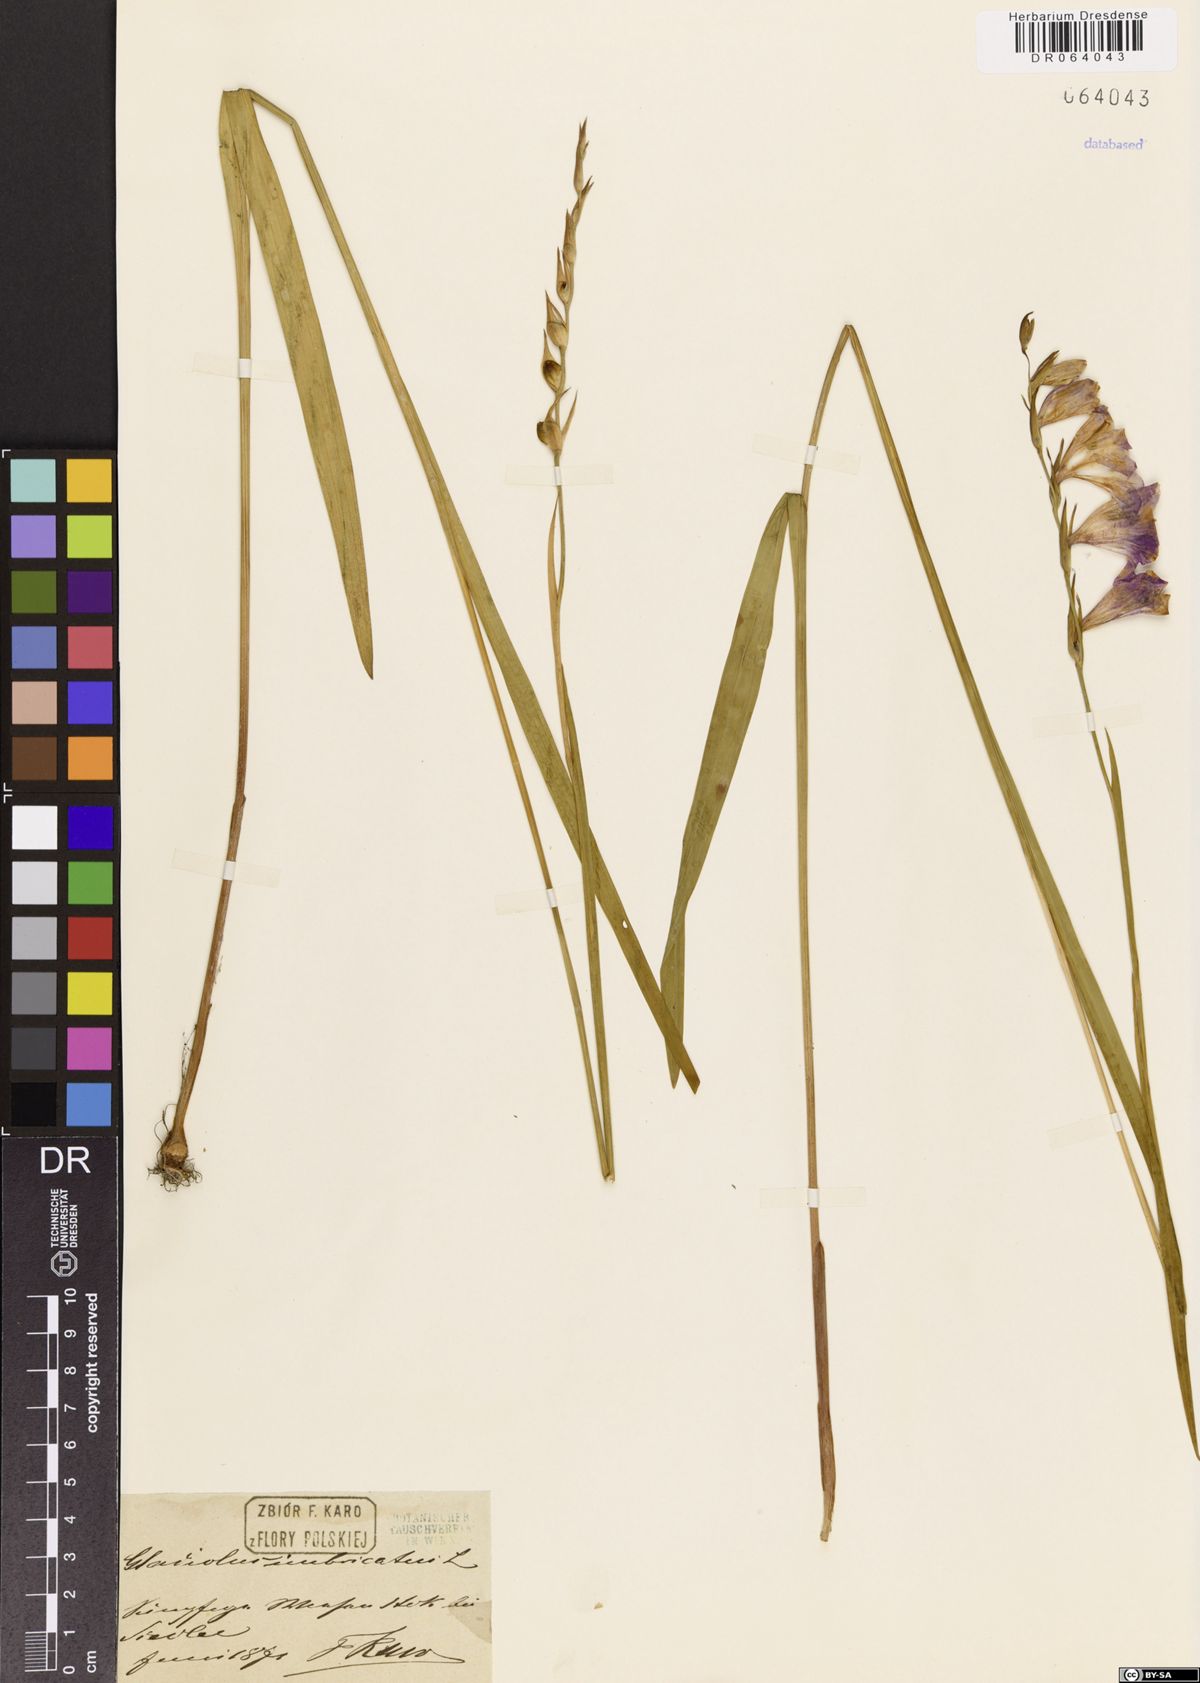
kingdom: Plantae
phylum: Tracheophyta
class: Liliopsida
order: Asparagales
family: Iridaceae
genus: Gladiolus
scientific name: Gladiolus imbricatus
